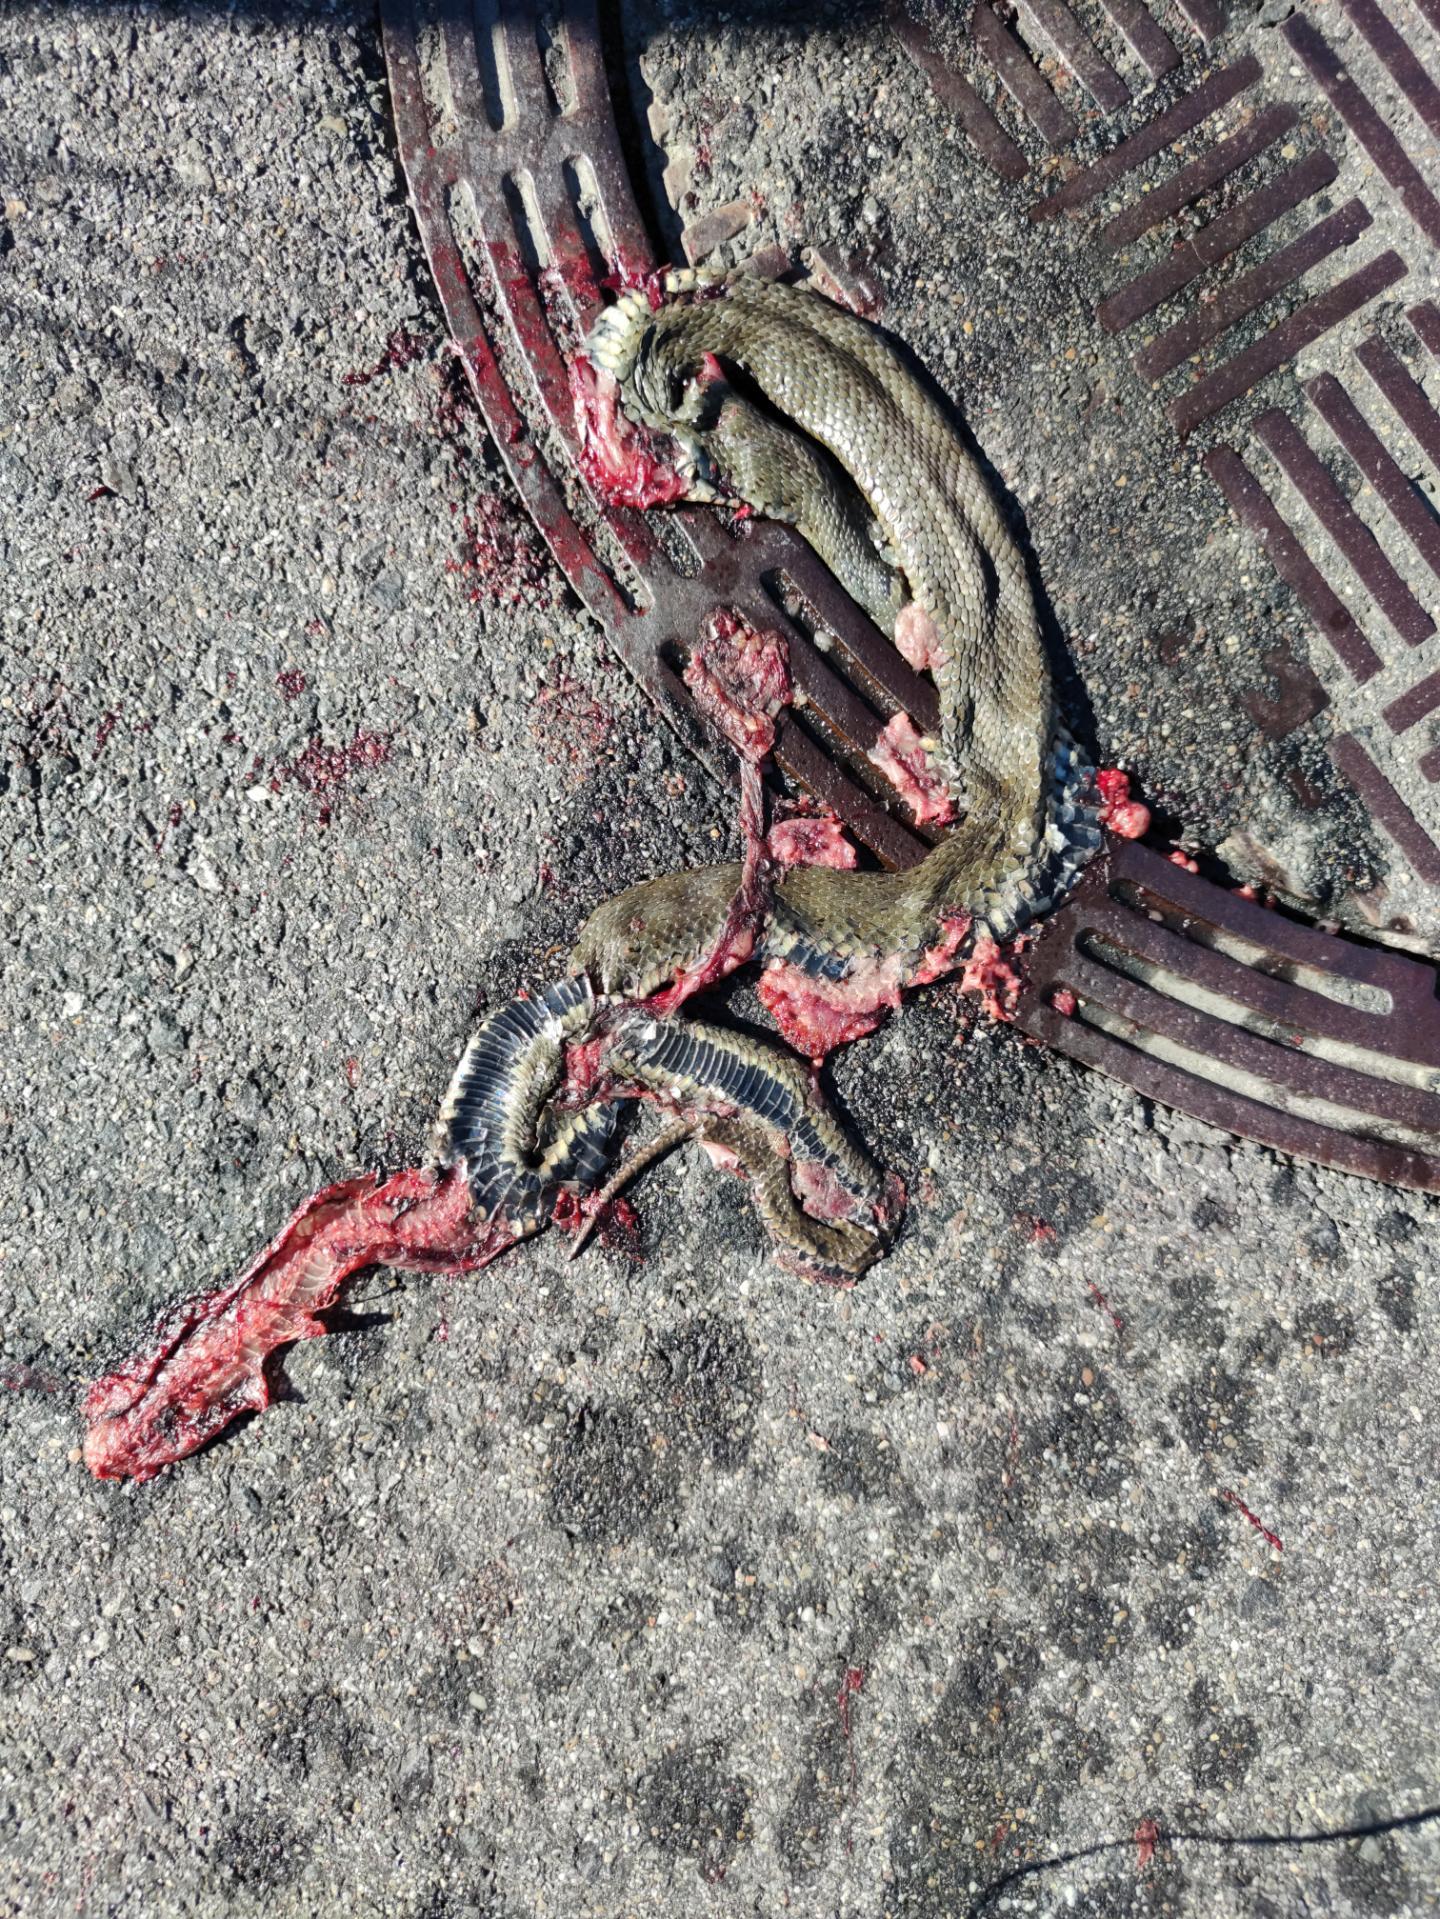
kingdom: Animalia
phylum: Chordata
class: Squamata
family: Colubridae
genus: Natrix
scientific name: Natrix natrix
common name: Grass snake
